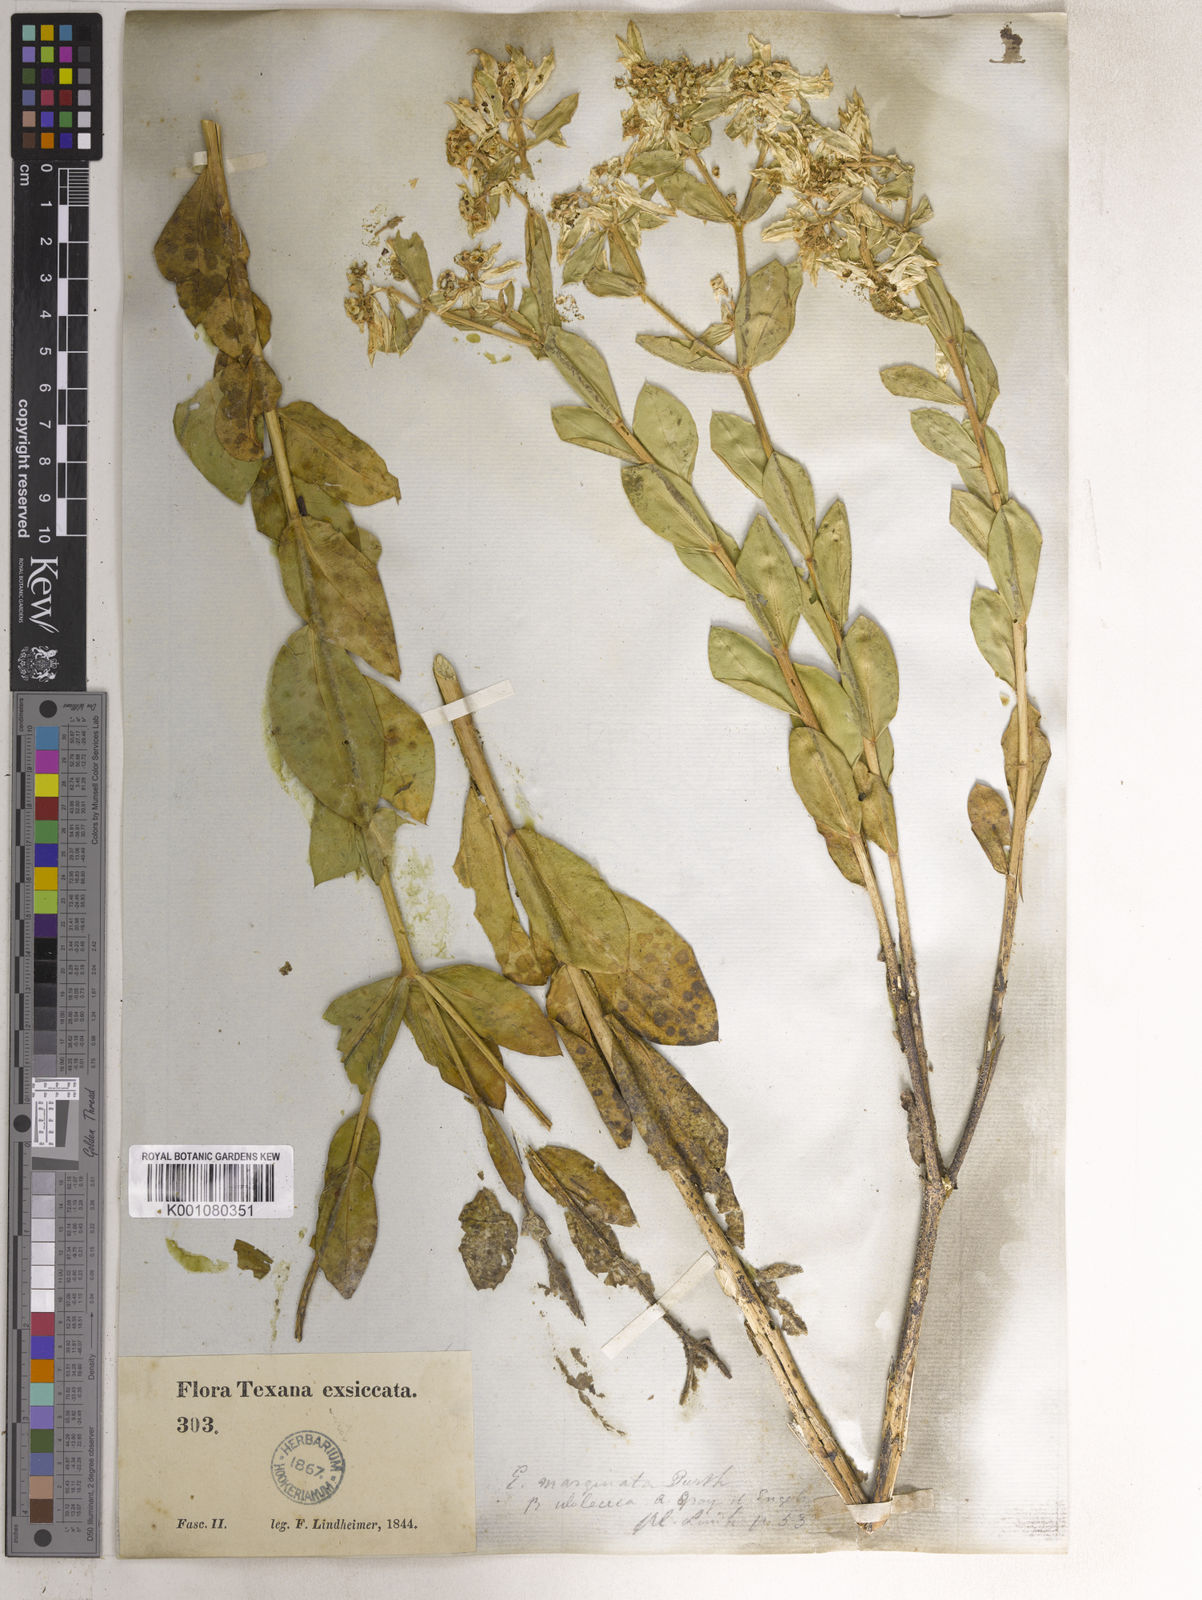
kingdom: Plantae
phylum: Tracheophyta
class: Magnoliopsida
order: Malpighiales
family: Euphorbiaceae
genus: Euphorbia
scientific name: Euphorbia marginata
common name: Ghostweed
